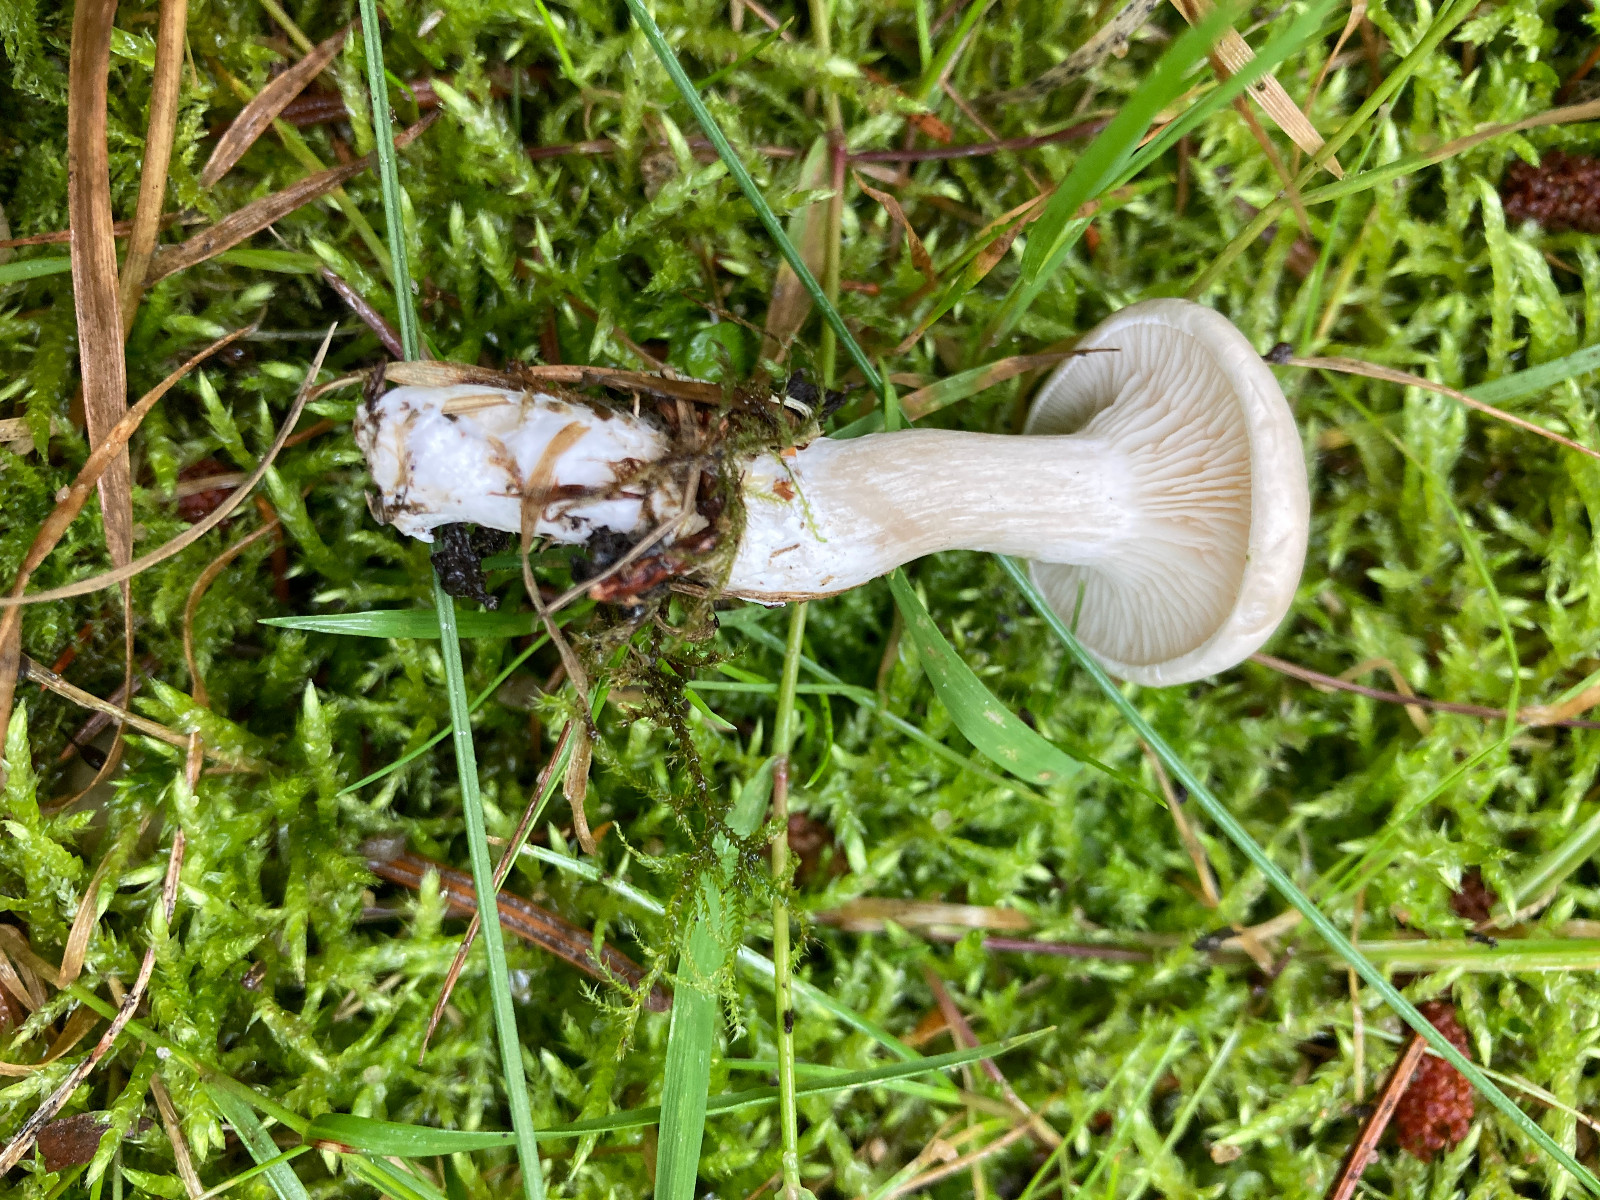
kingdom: Fungi
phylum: Basidiomycota
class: Agaricomycetes
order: Agaricales
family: Entolomataceae
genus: Clitopilus
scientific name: Clitopilus prunulus
